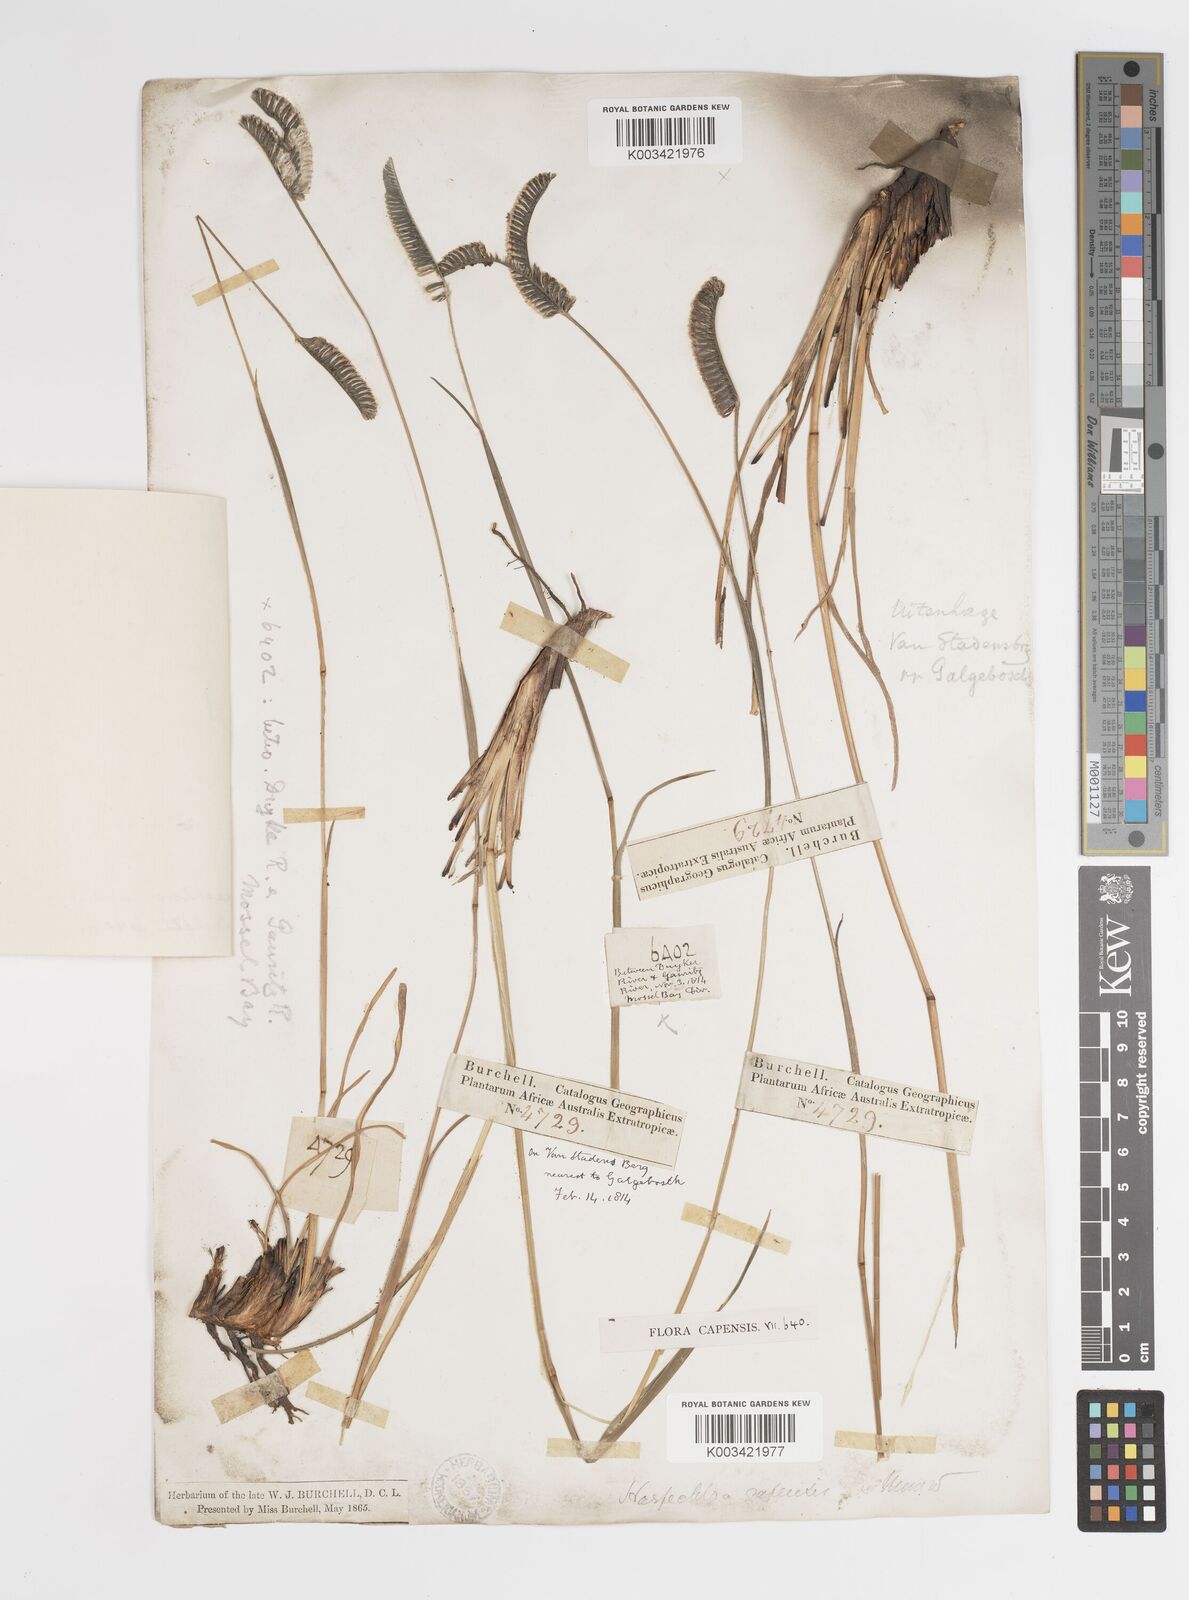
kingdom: Plantae
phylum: Tracheophyta
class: Liliopsida
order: Poales
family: Poaceae
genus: Harpochloa
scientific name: Harpochloa falx
